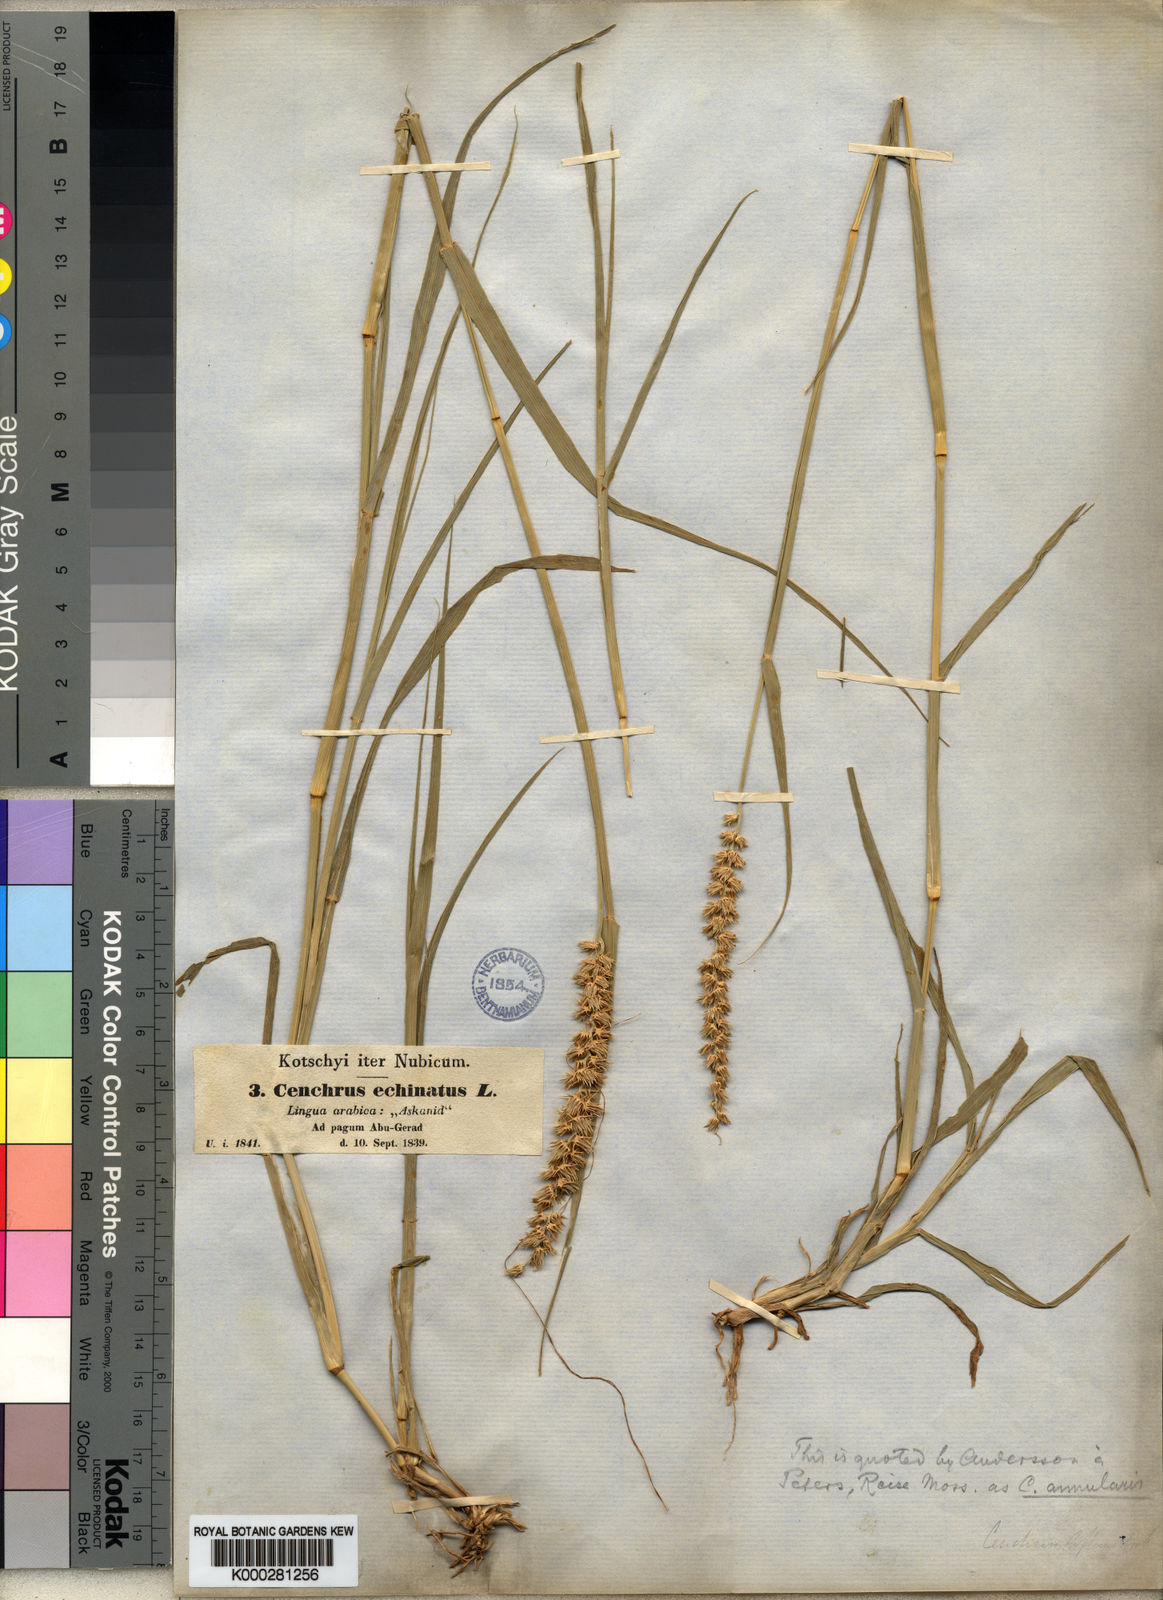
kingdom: Plantae
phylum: Tracheophyta
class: Liliopsida
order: Poales
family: Poaceae
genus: Cenchrus
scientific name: Cenchrus biflorus
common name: Indian sandbur
